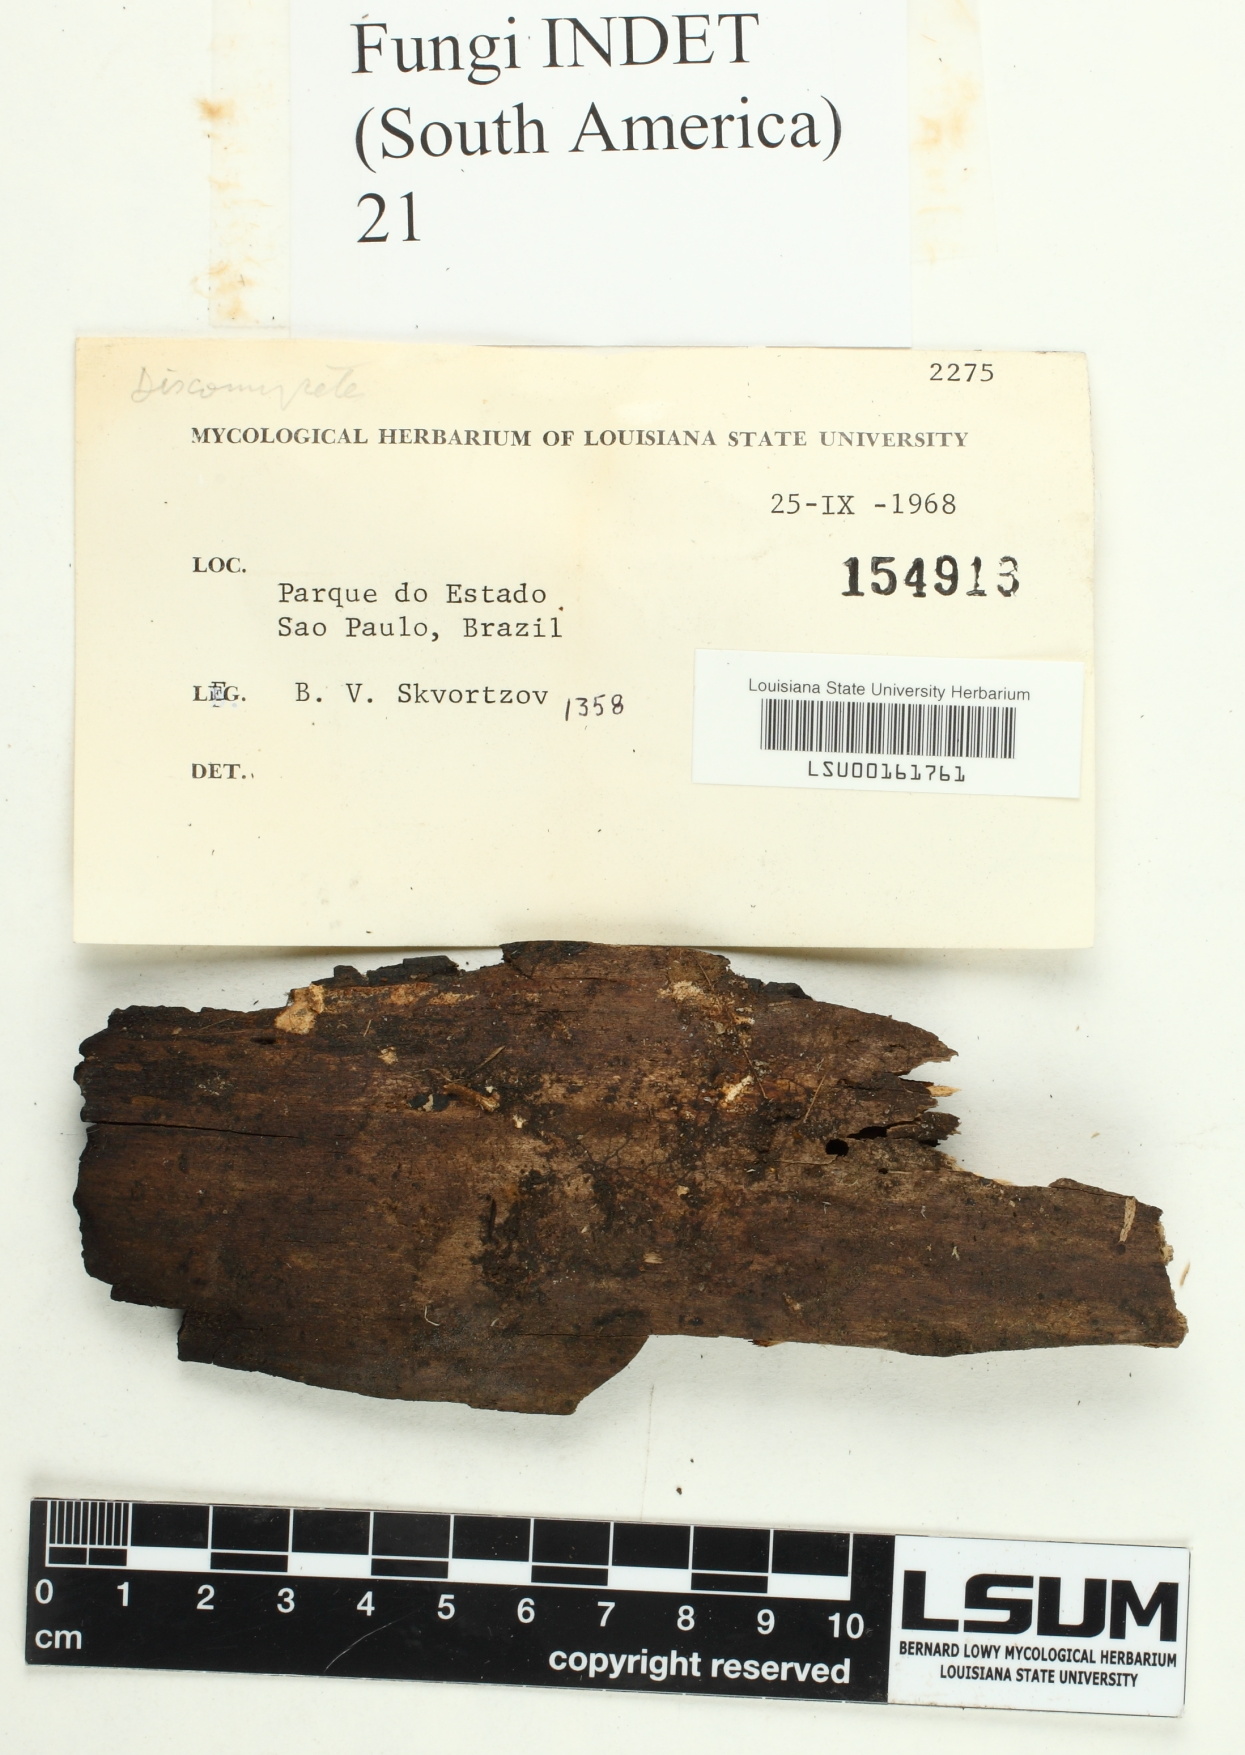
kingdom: Fungi
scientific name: Fungi
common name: Fungi
